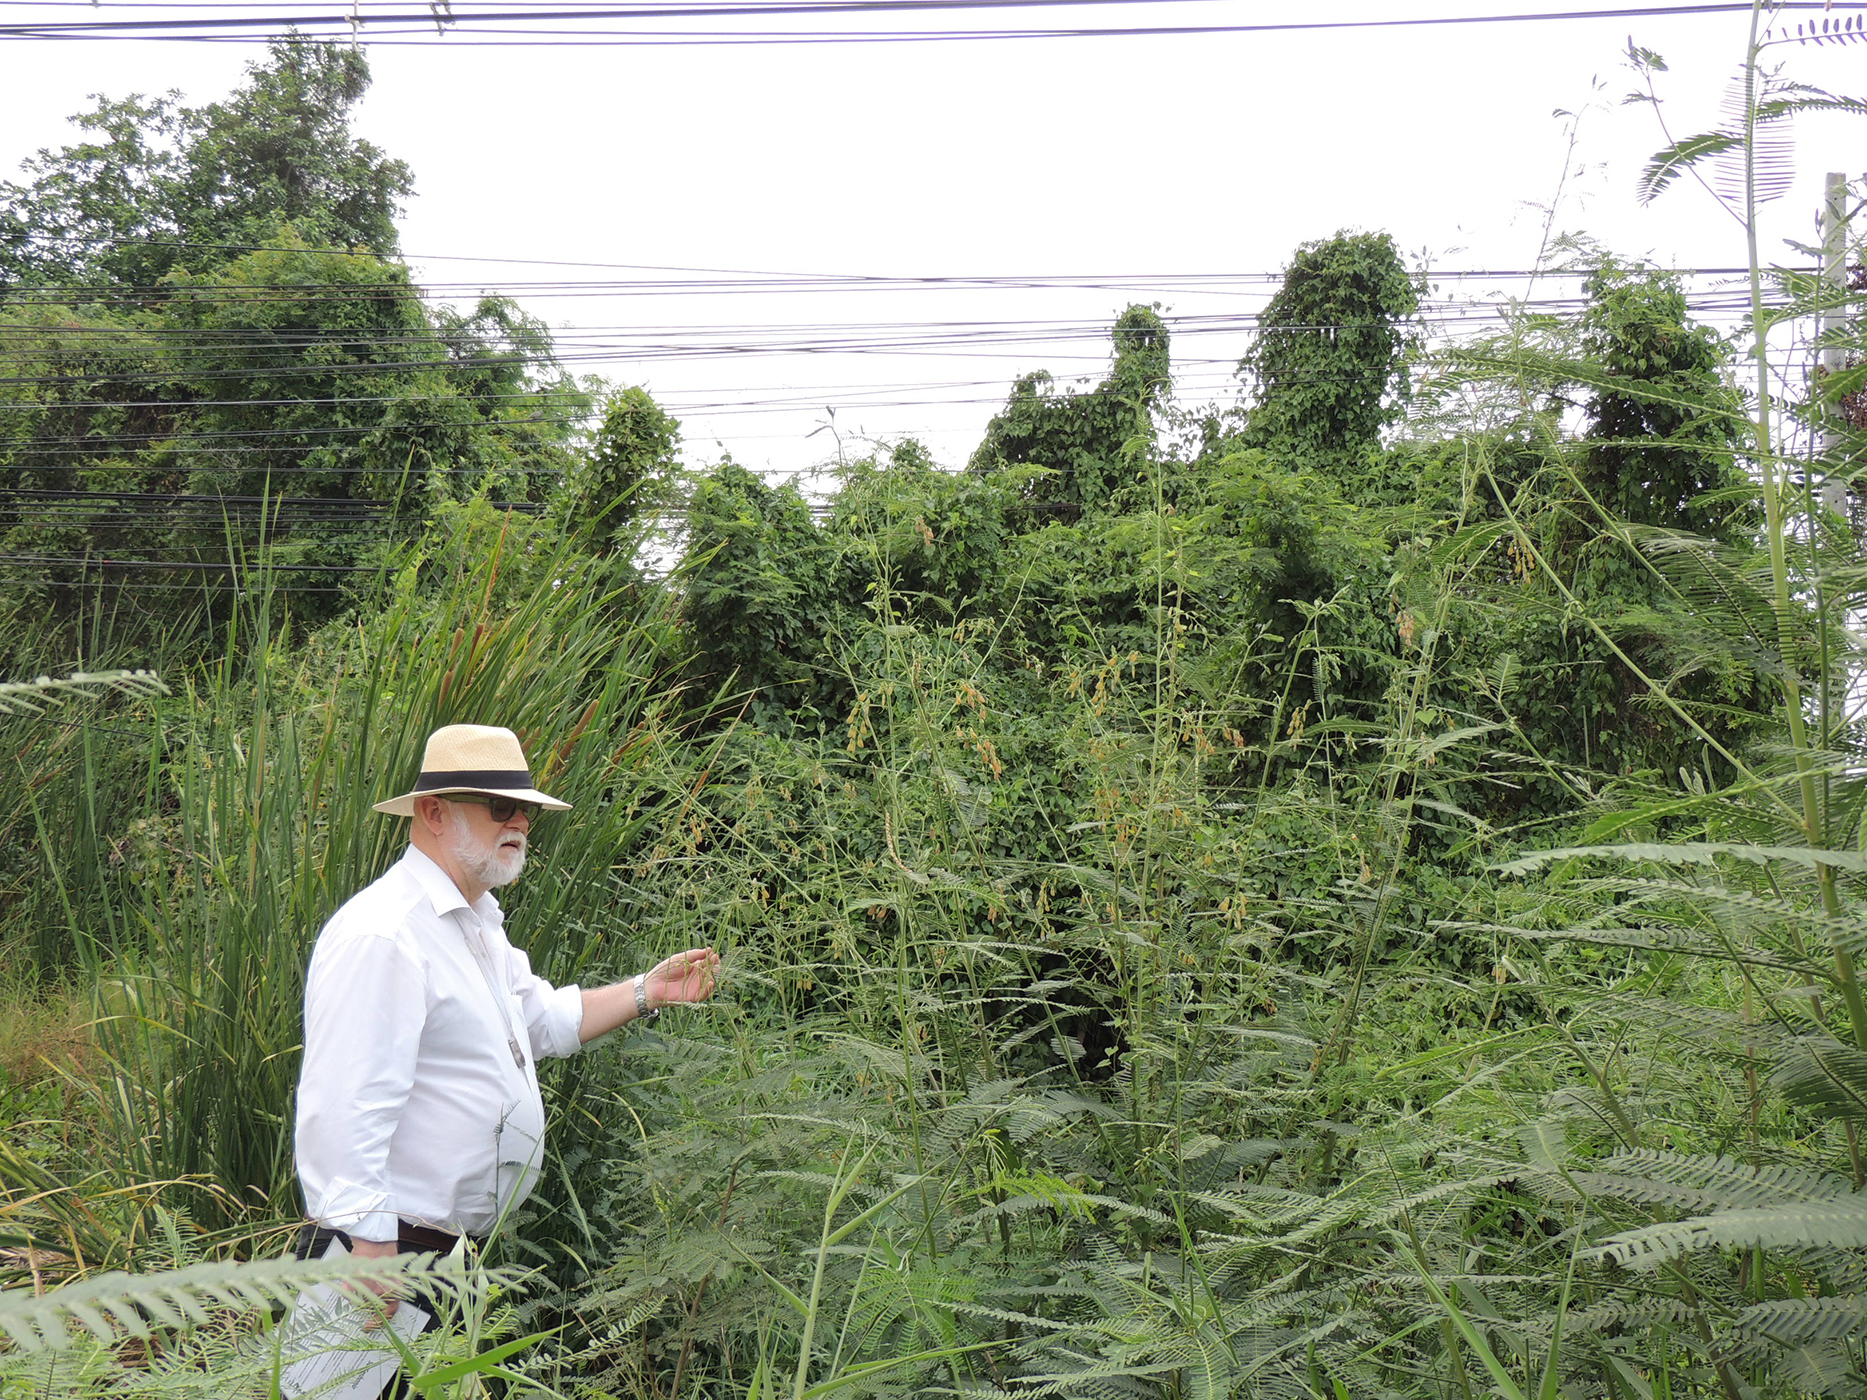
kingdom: Plantae
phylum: Tracheophyta
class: Magnoliopsida
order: Fabales
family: Fabaceae
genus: Sesbania
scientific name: Sesbania javanica
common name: Sesbania-pea
